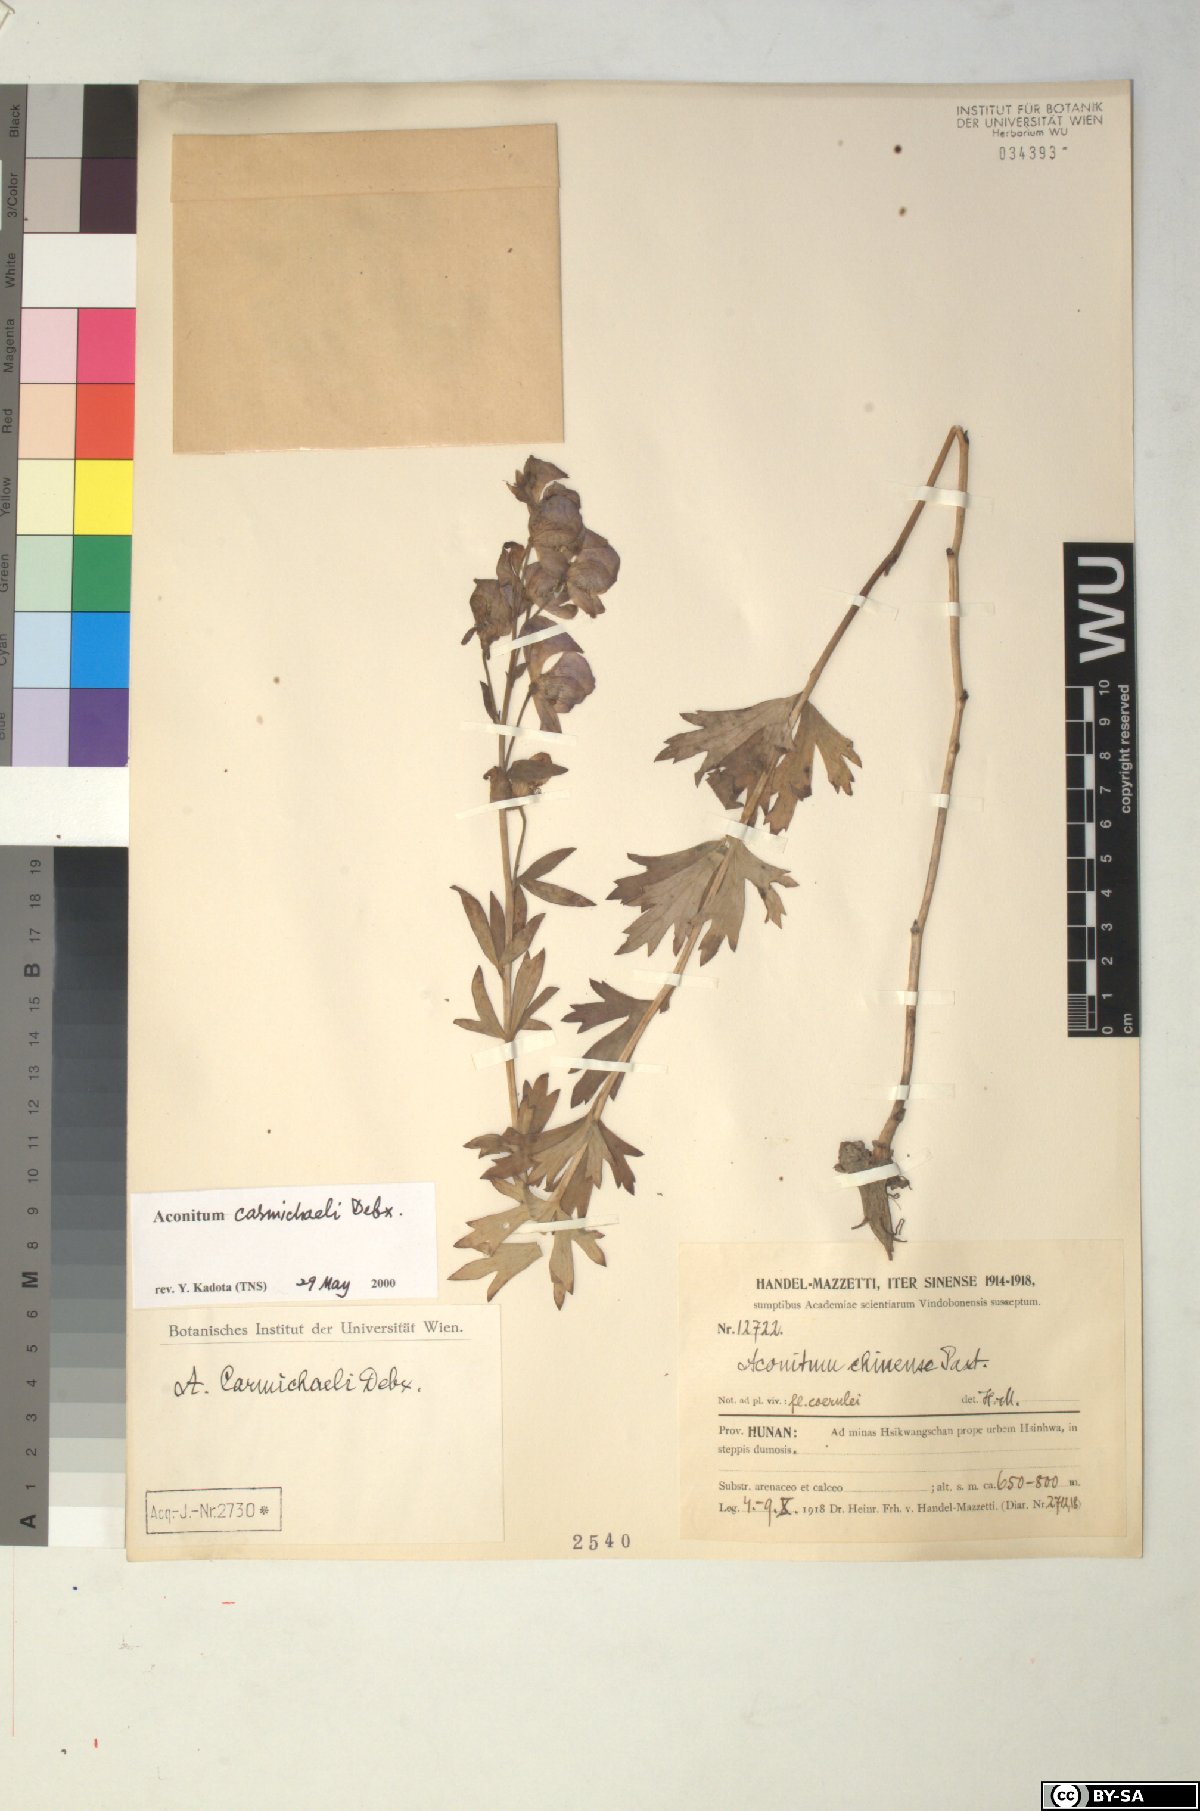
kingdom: Plantae
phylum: Tracheophyta
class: Magnoliopsida
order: Ranunculales
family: Ranunculaceae
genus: Aconitum
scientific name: Aconitum carmichaelii
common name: Carmichael's monkshood
